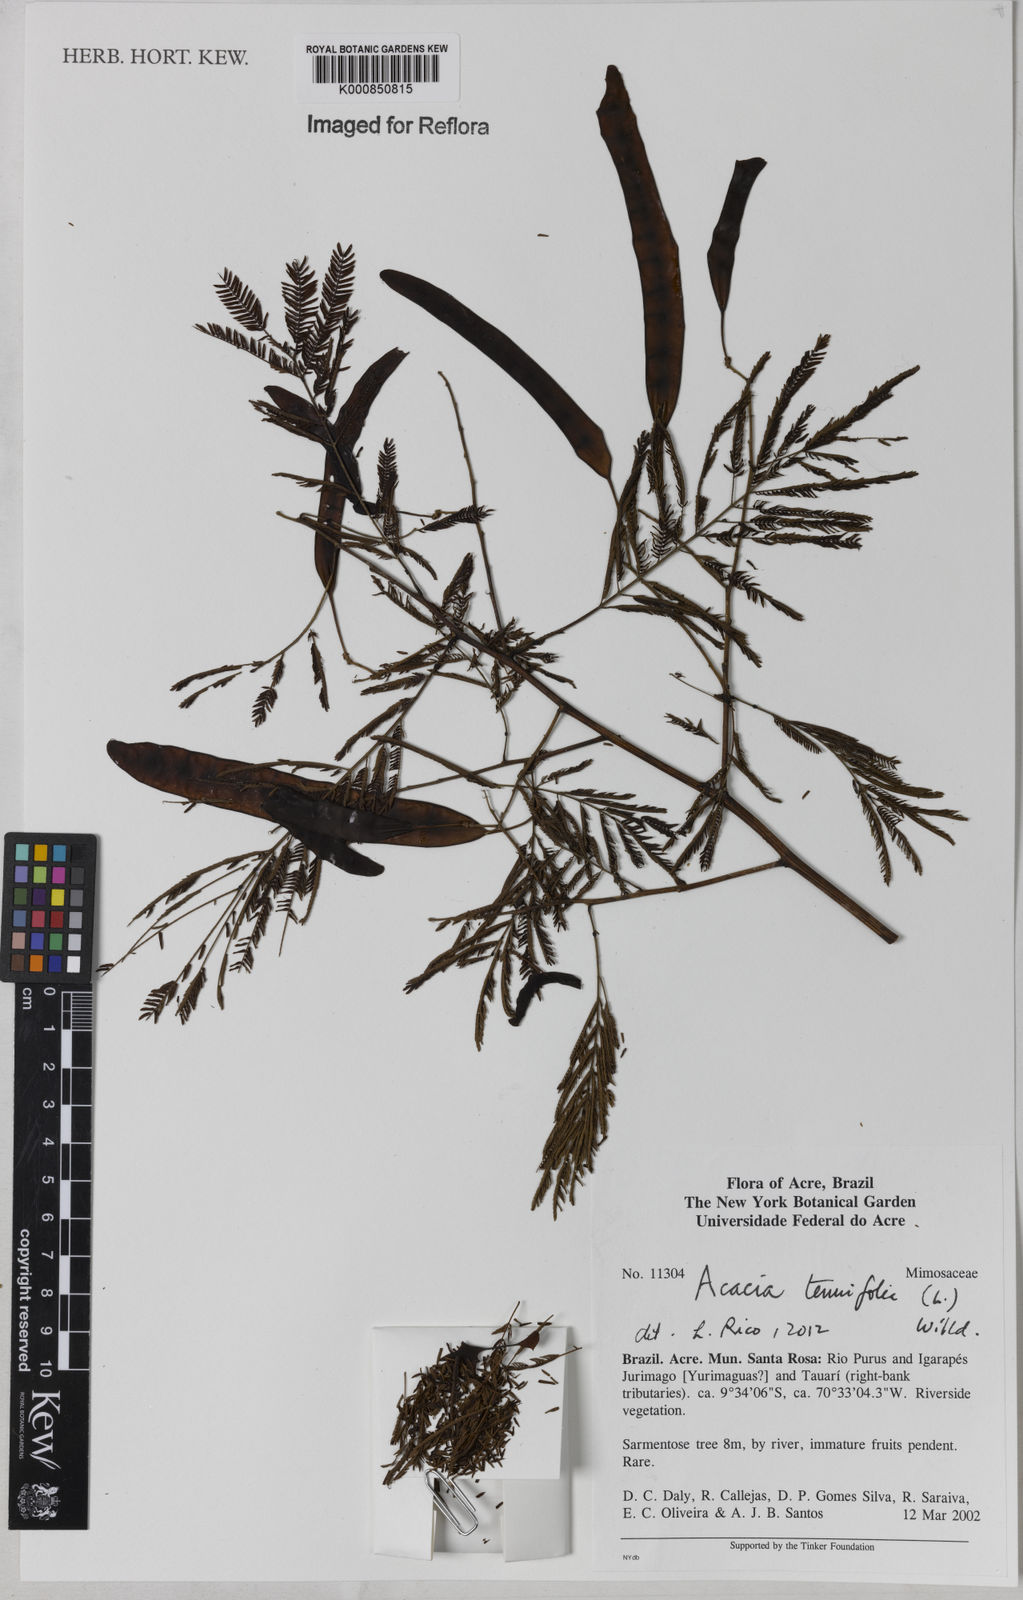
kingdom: Plantae
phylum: Tracheophyta
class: Magnoliopsida
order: Fabales
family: Fabaceae
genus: Senegalia
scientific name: Senegalia tenuifolia
